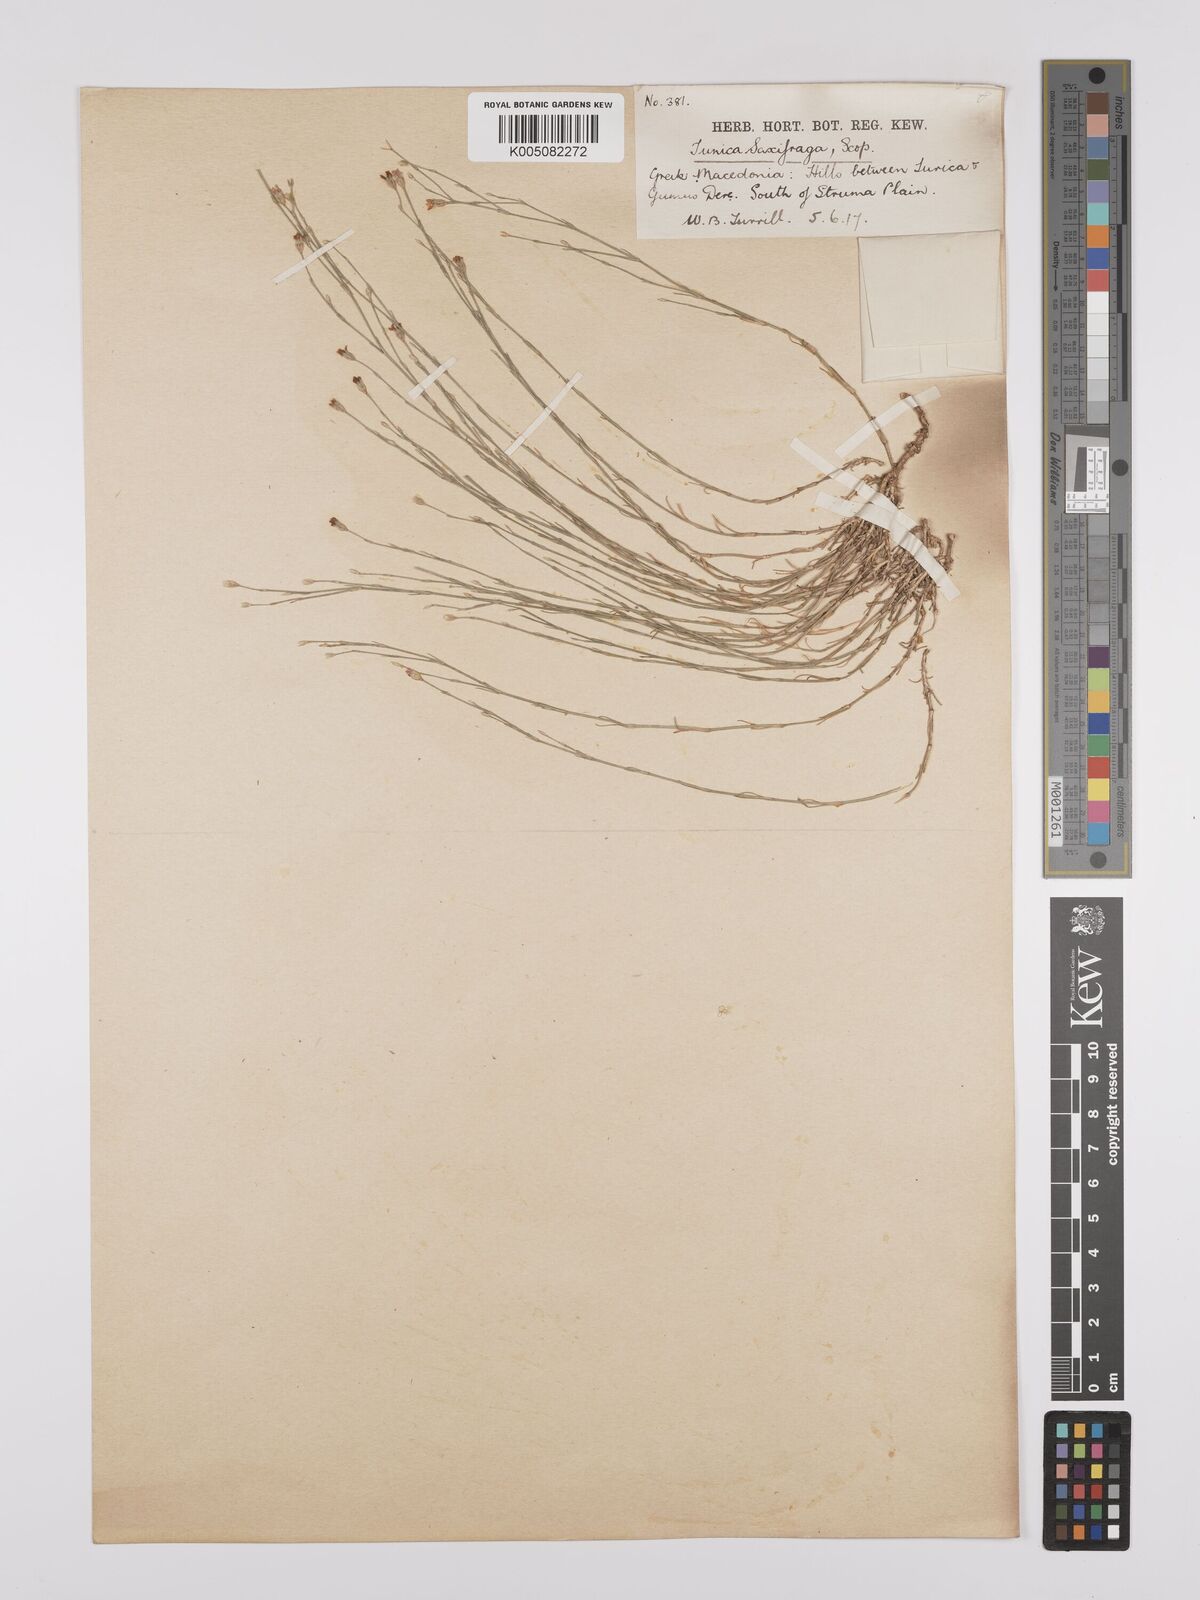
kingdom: Plantae
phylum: Tracheophyta
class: Magnoliopsida
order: Caryophyllales
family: Caryophyllaceae
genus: Petrorhagia
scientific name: Petrorhagia saxifraga
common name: Tunicflower
